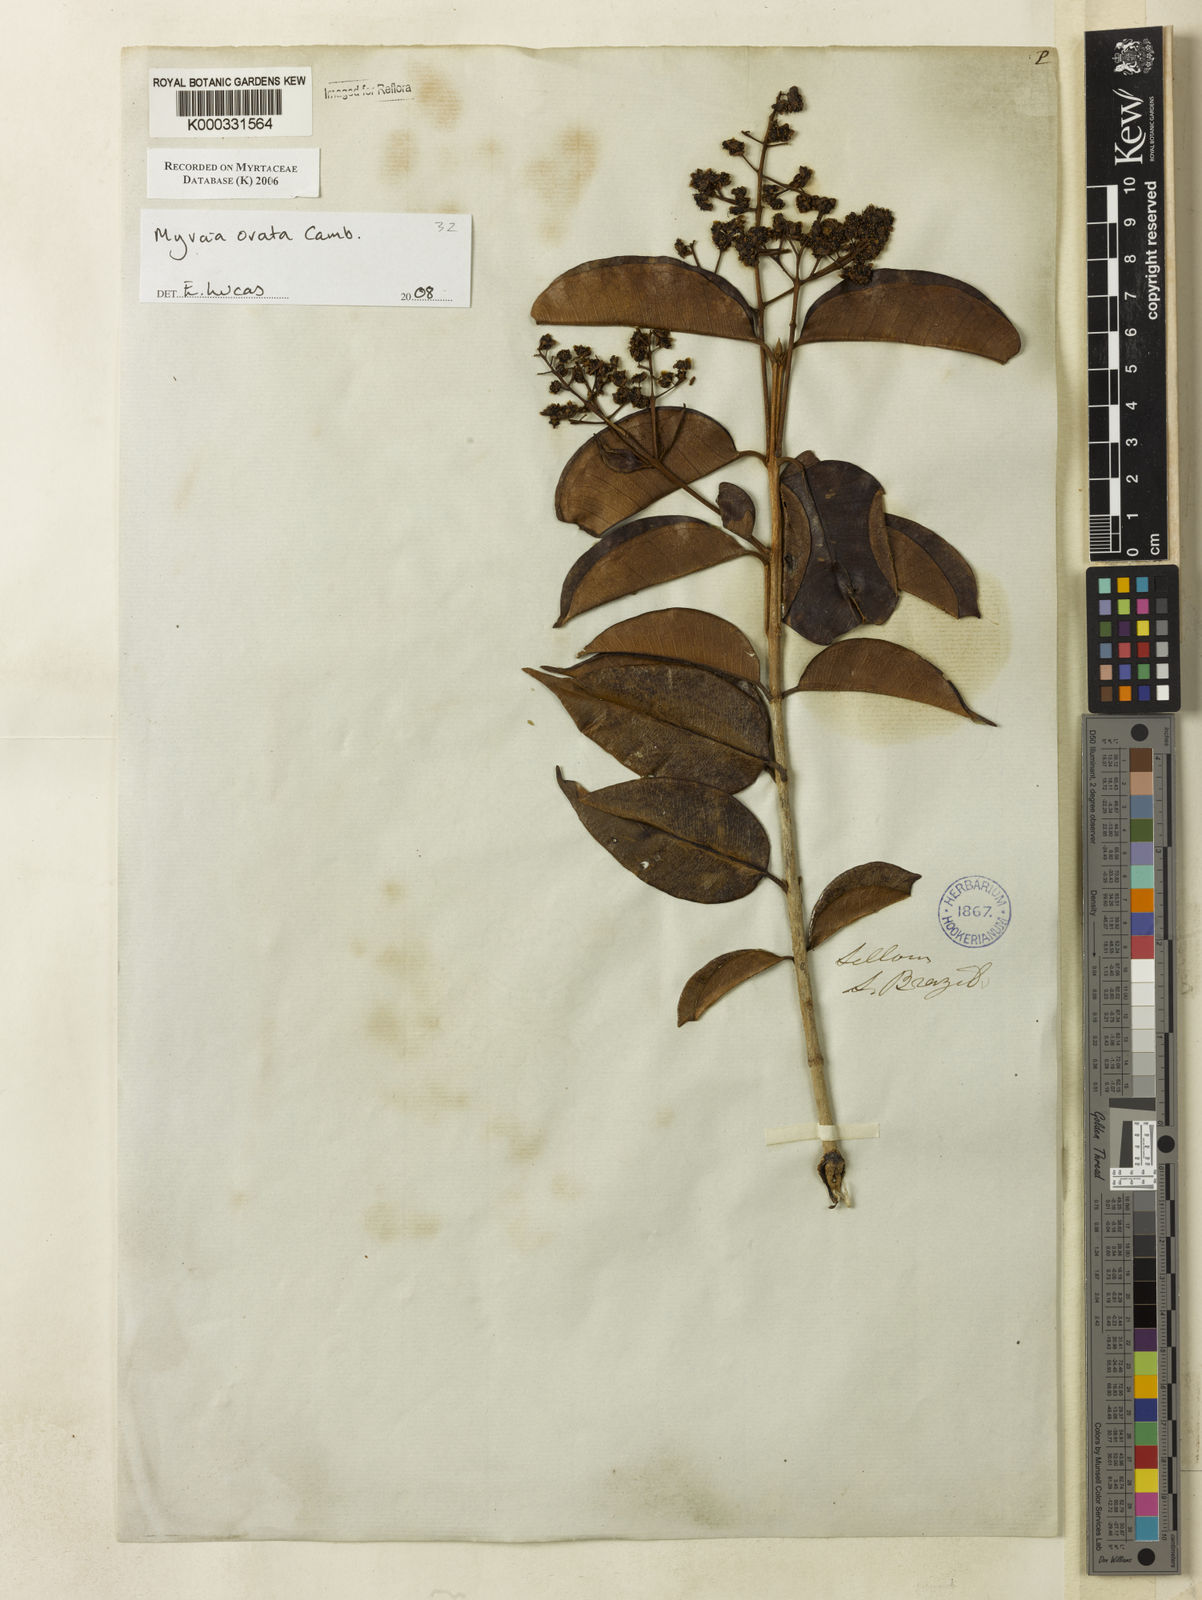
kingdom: Plantae
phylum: Tracheophyta
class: Magnoliopsida
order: Myrtales
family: Myrtaceae
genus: Myrcia
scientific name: Myrcia
